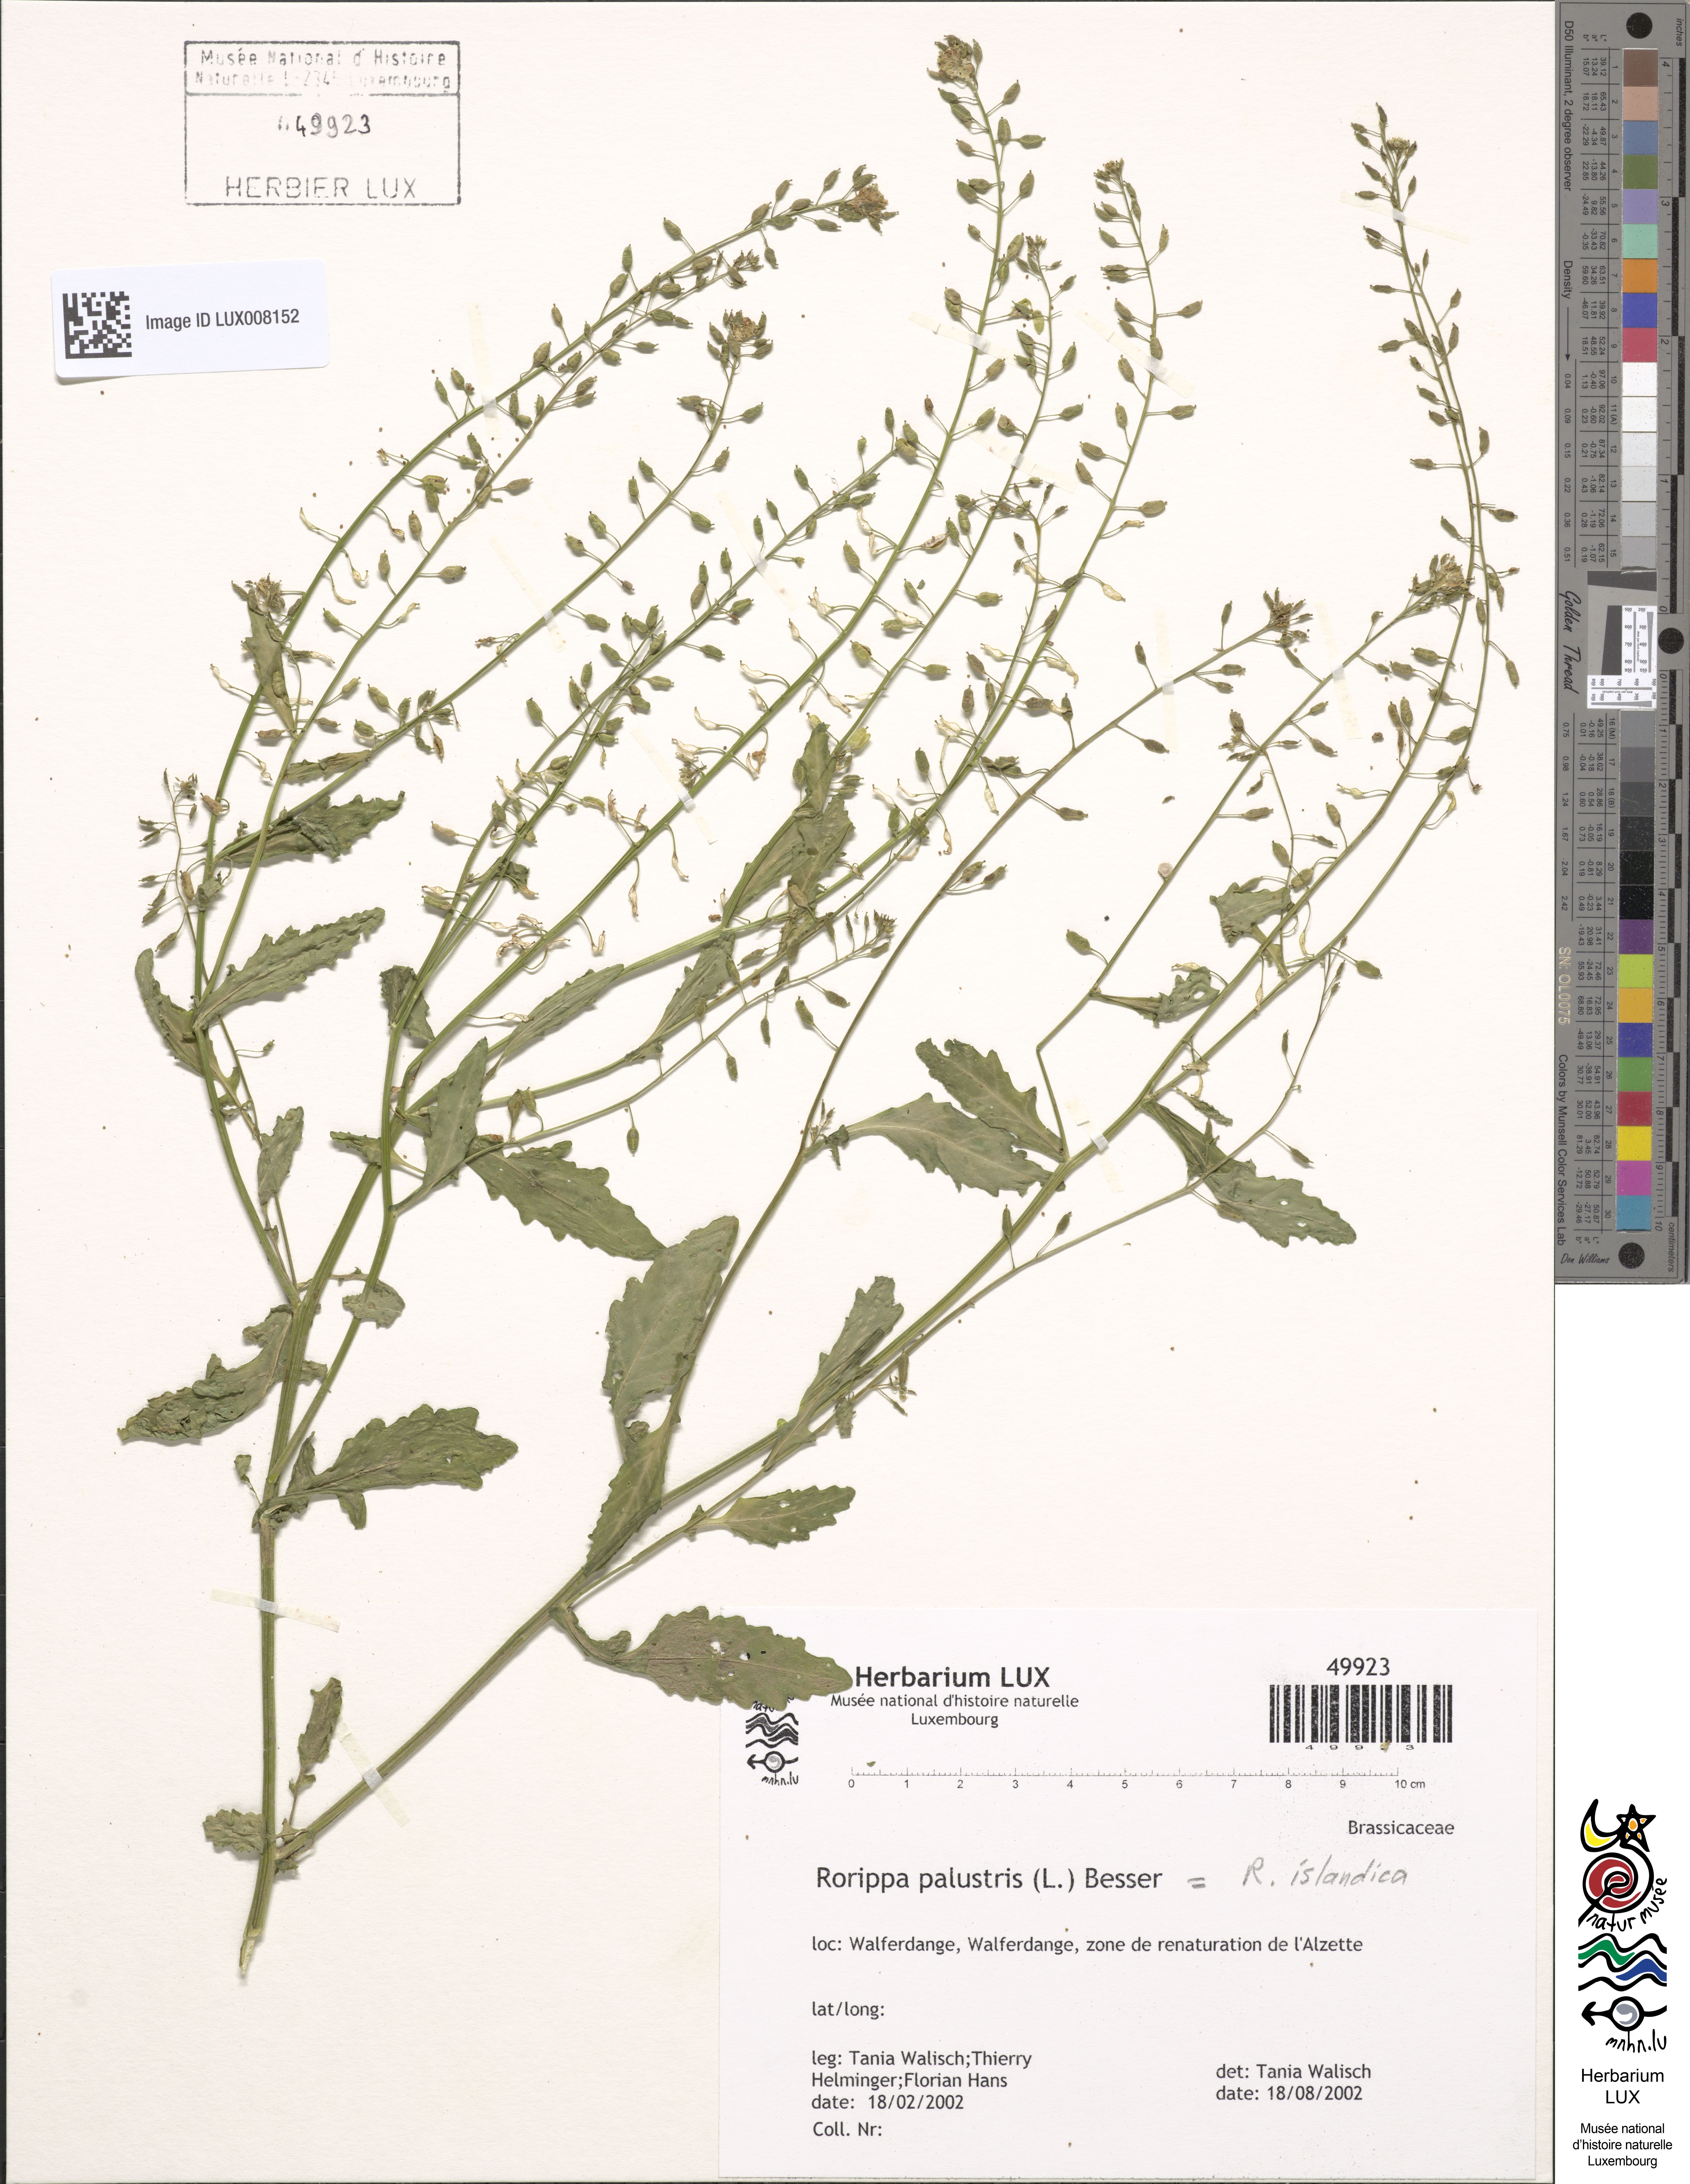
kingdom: Plantae
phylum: Tracheophyta
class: Magnoliopsida
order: Brassicales
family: Brassicaceae
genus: Rorippa
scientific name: Rorippa palustris
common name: Marsh yellow-cress
